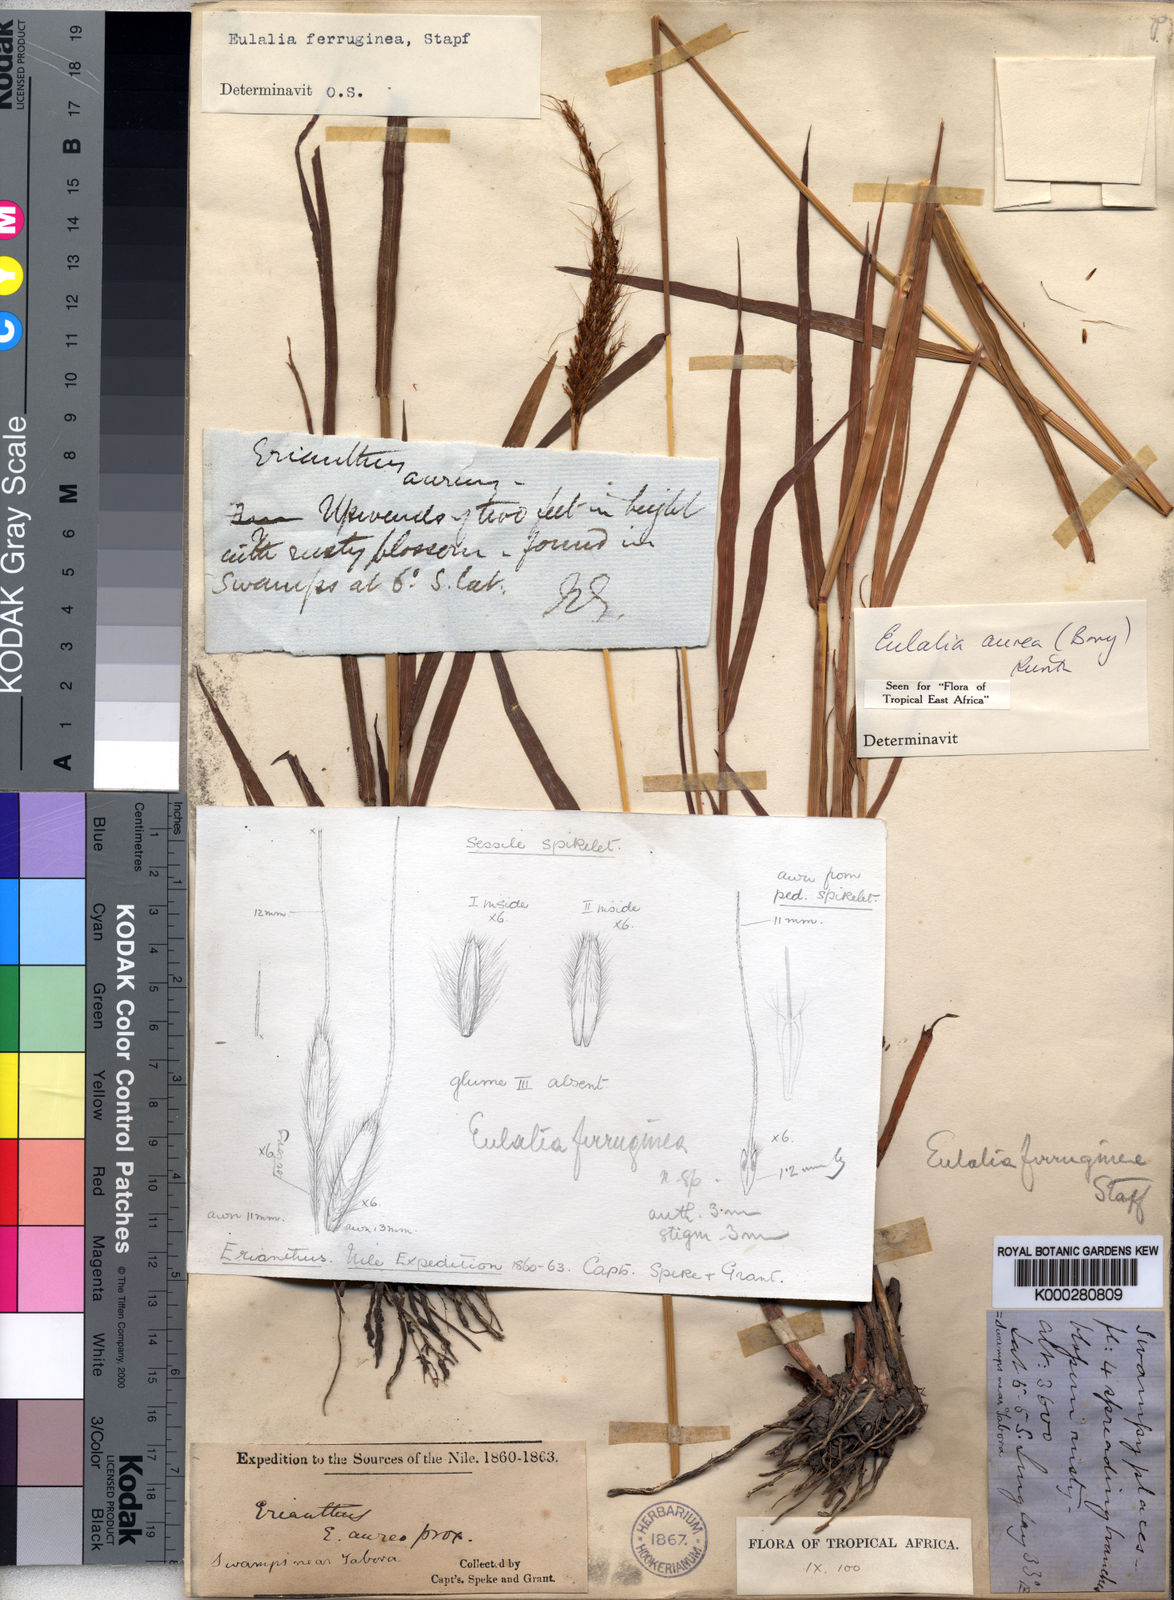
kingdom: Plantae
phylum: Tracheophyta
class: Liliopsida
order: Poales
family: Poaceae
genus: Eulalia
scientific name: Eulalia aurea
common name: Silky browntop
